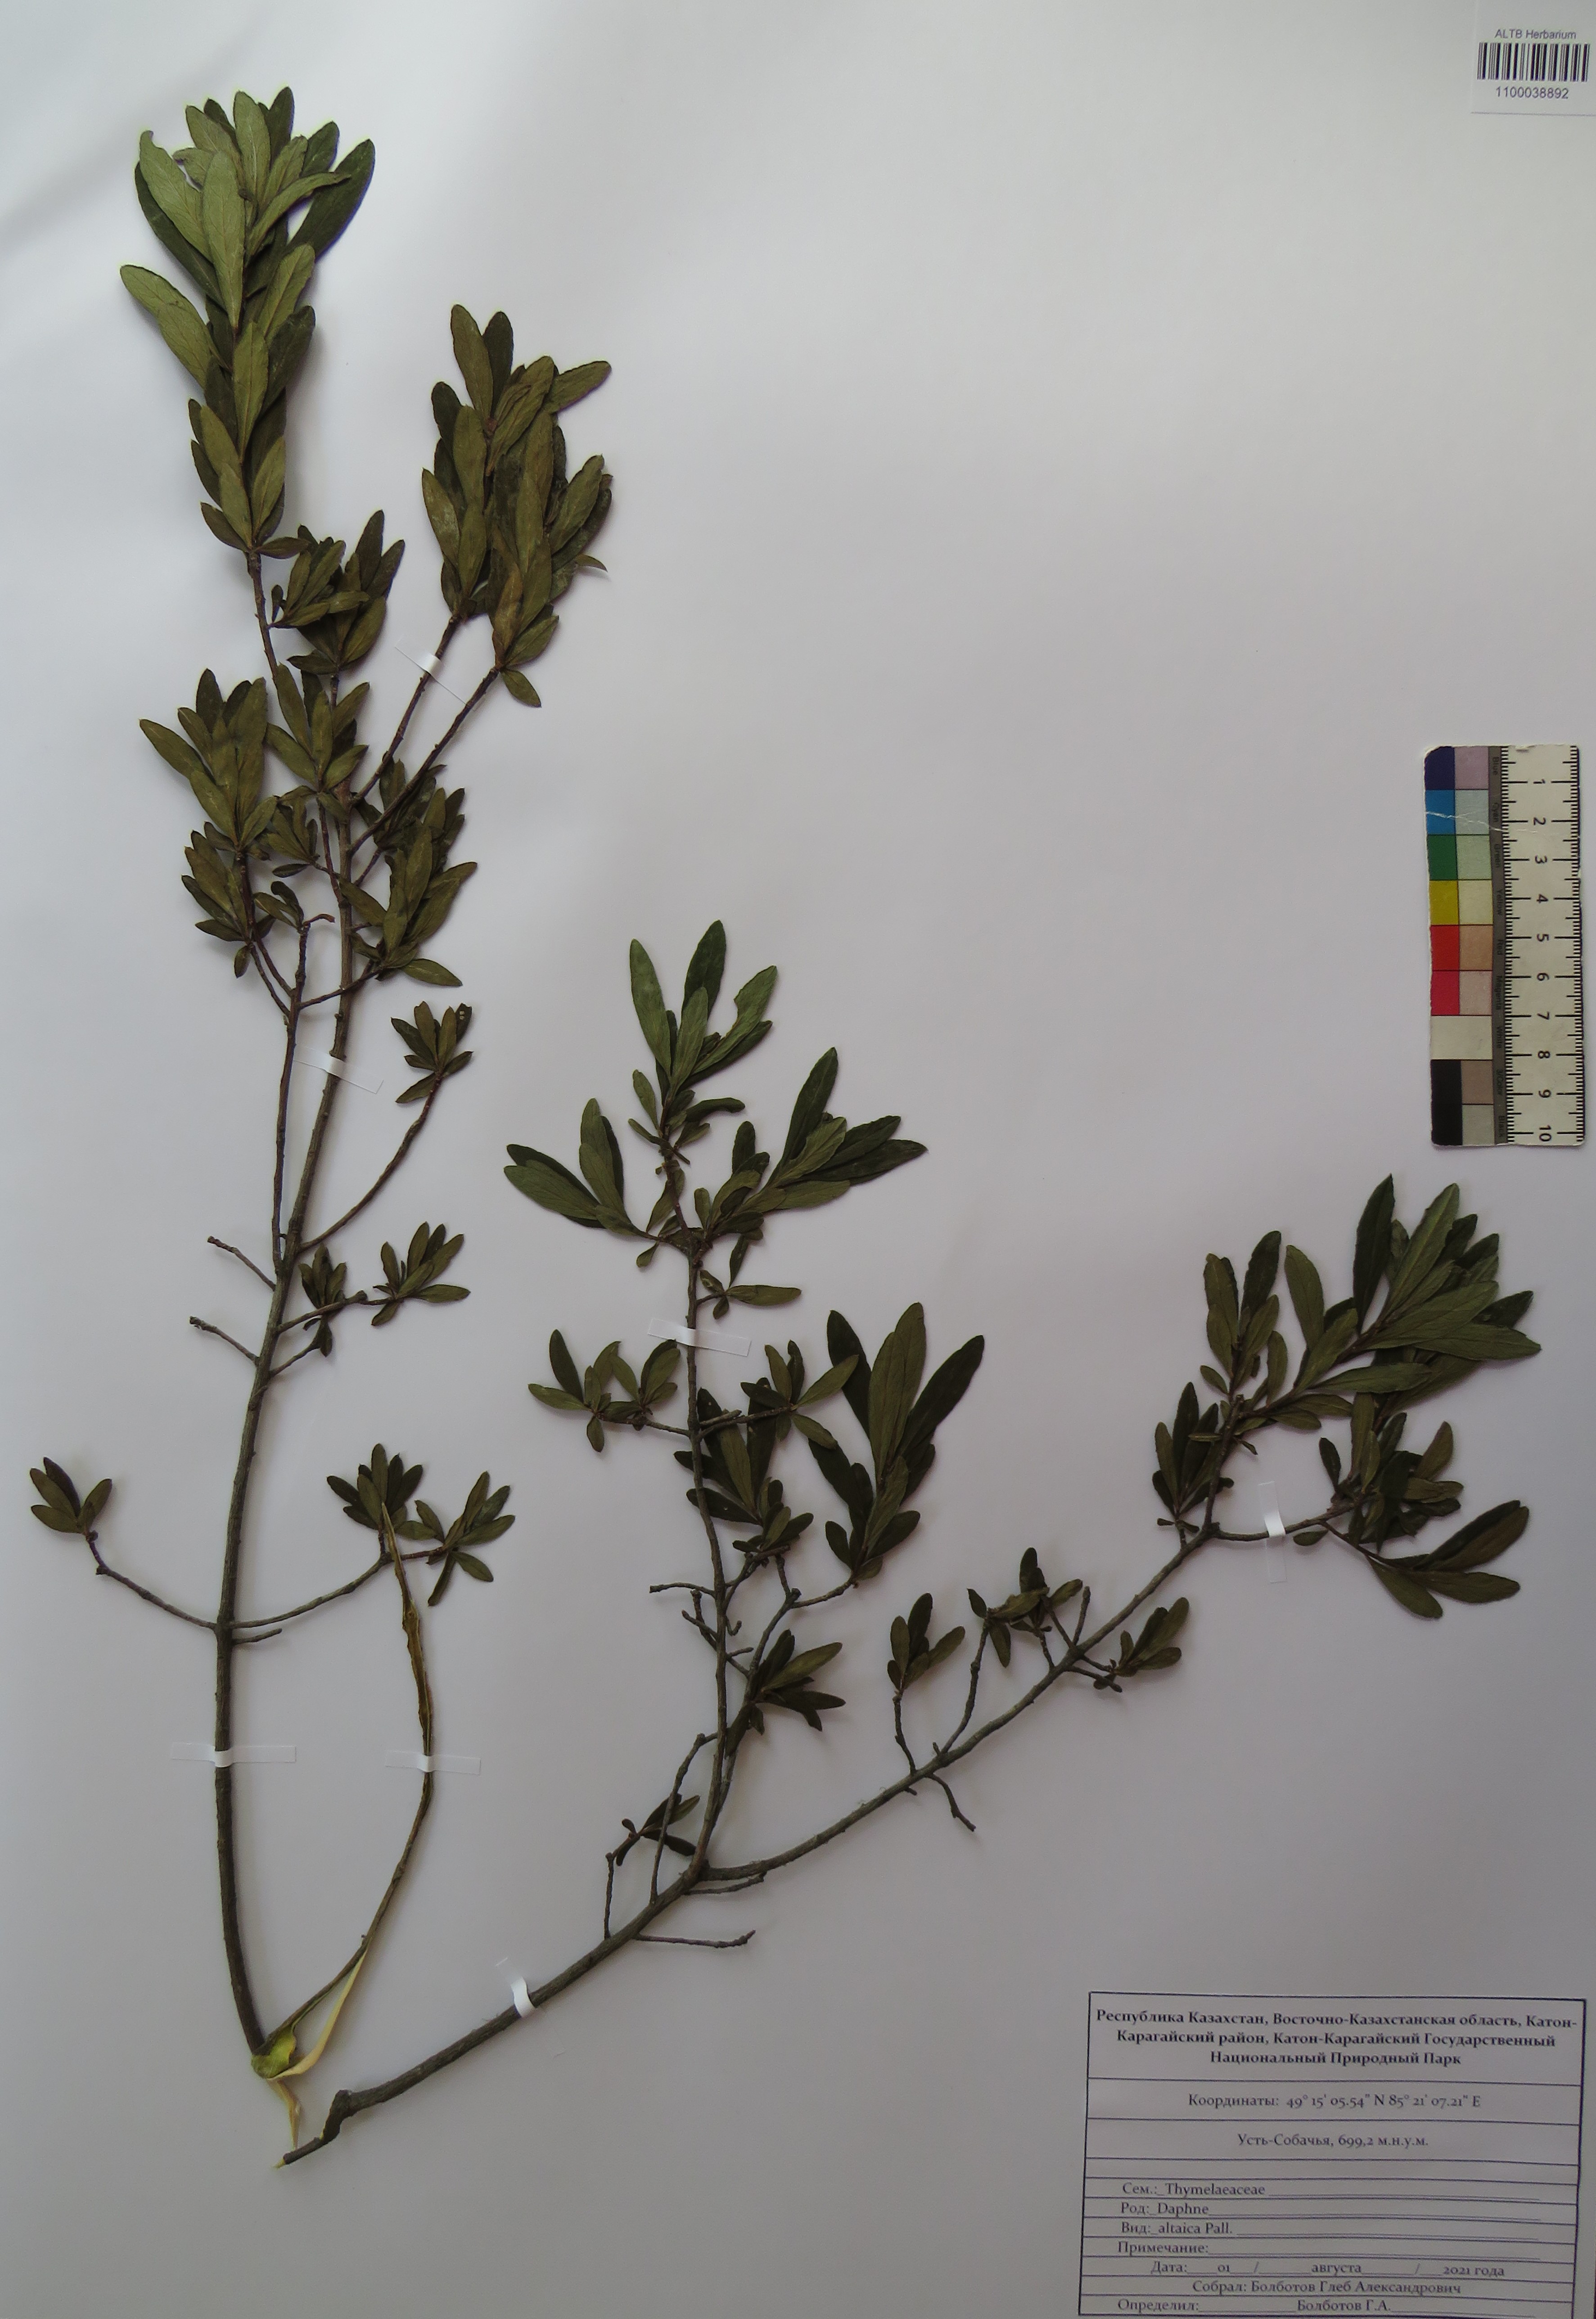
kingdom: Plantae
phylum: Tracheophyta
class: Magnoliopsida
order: Malvales
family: Thymelaeaceae
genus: Daphne
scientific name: Daphne altaica
